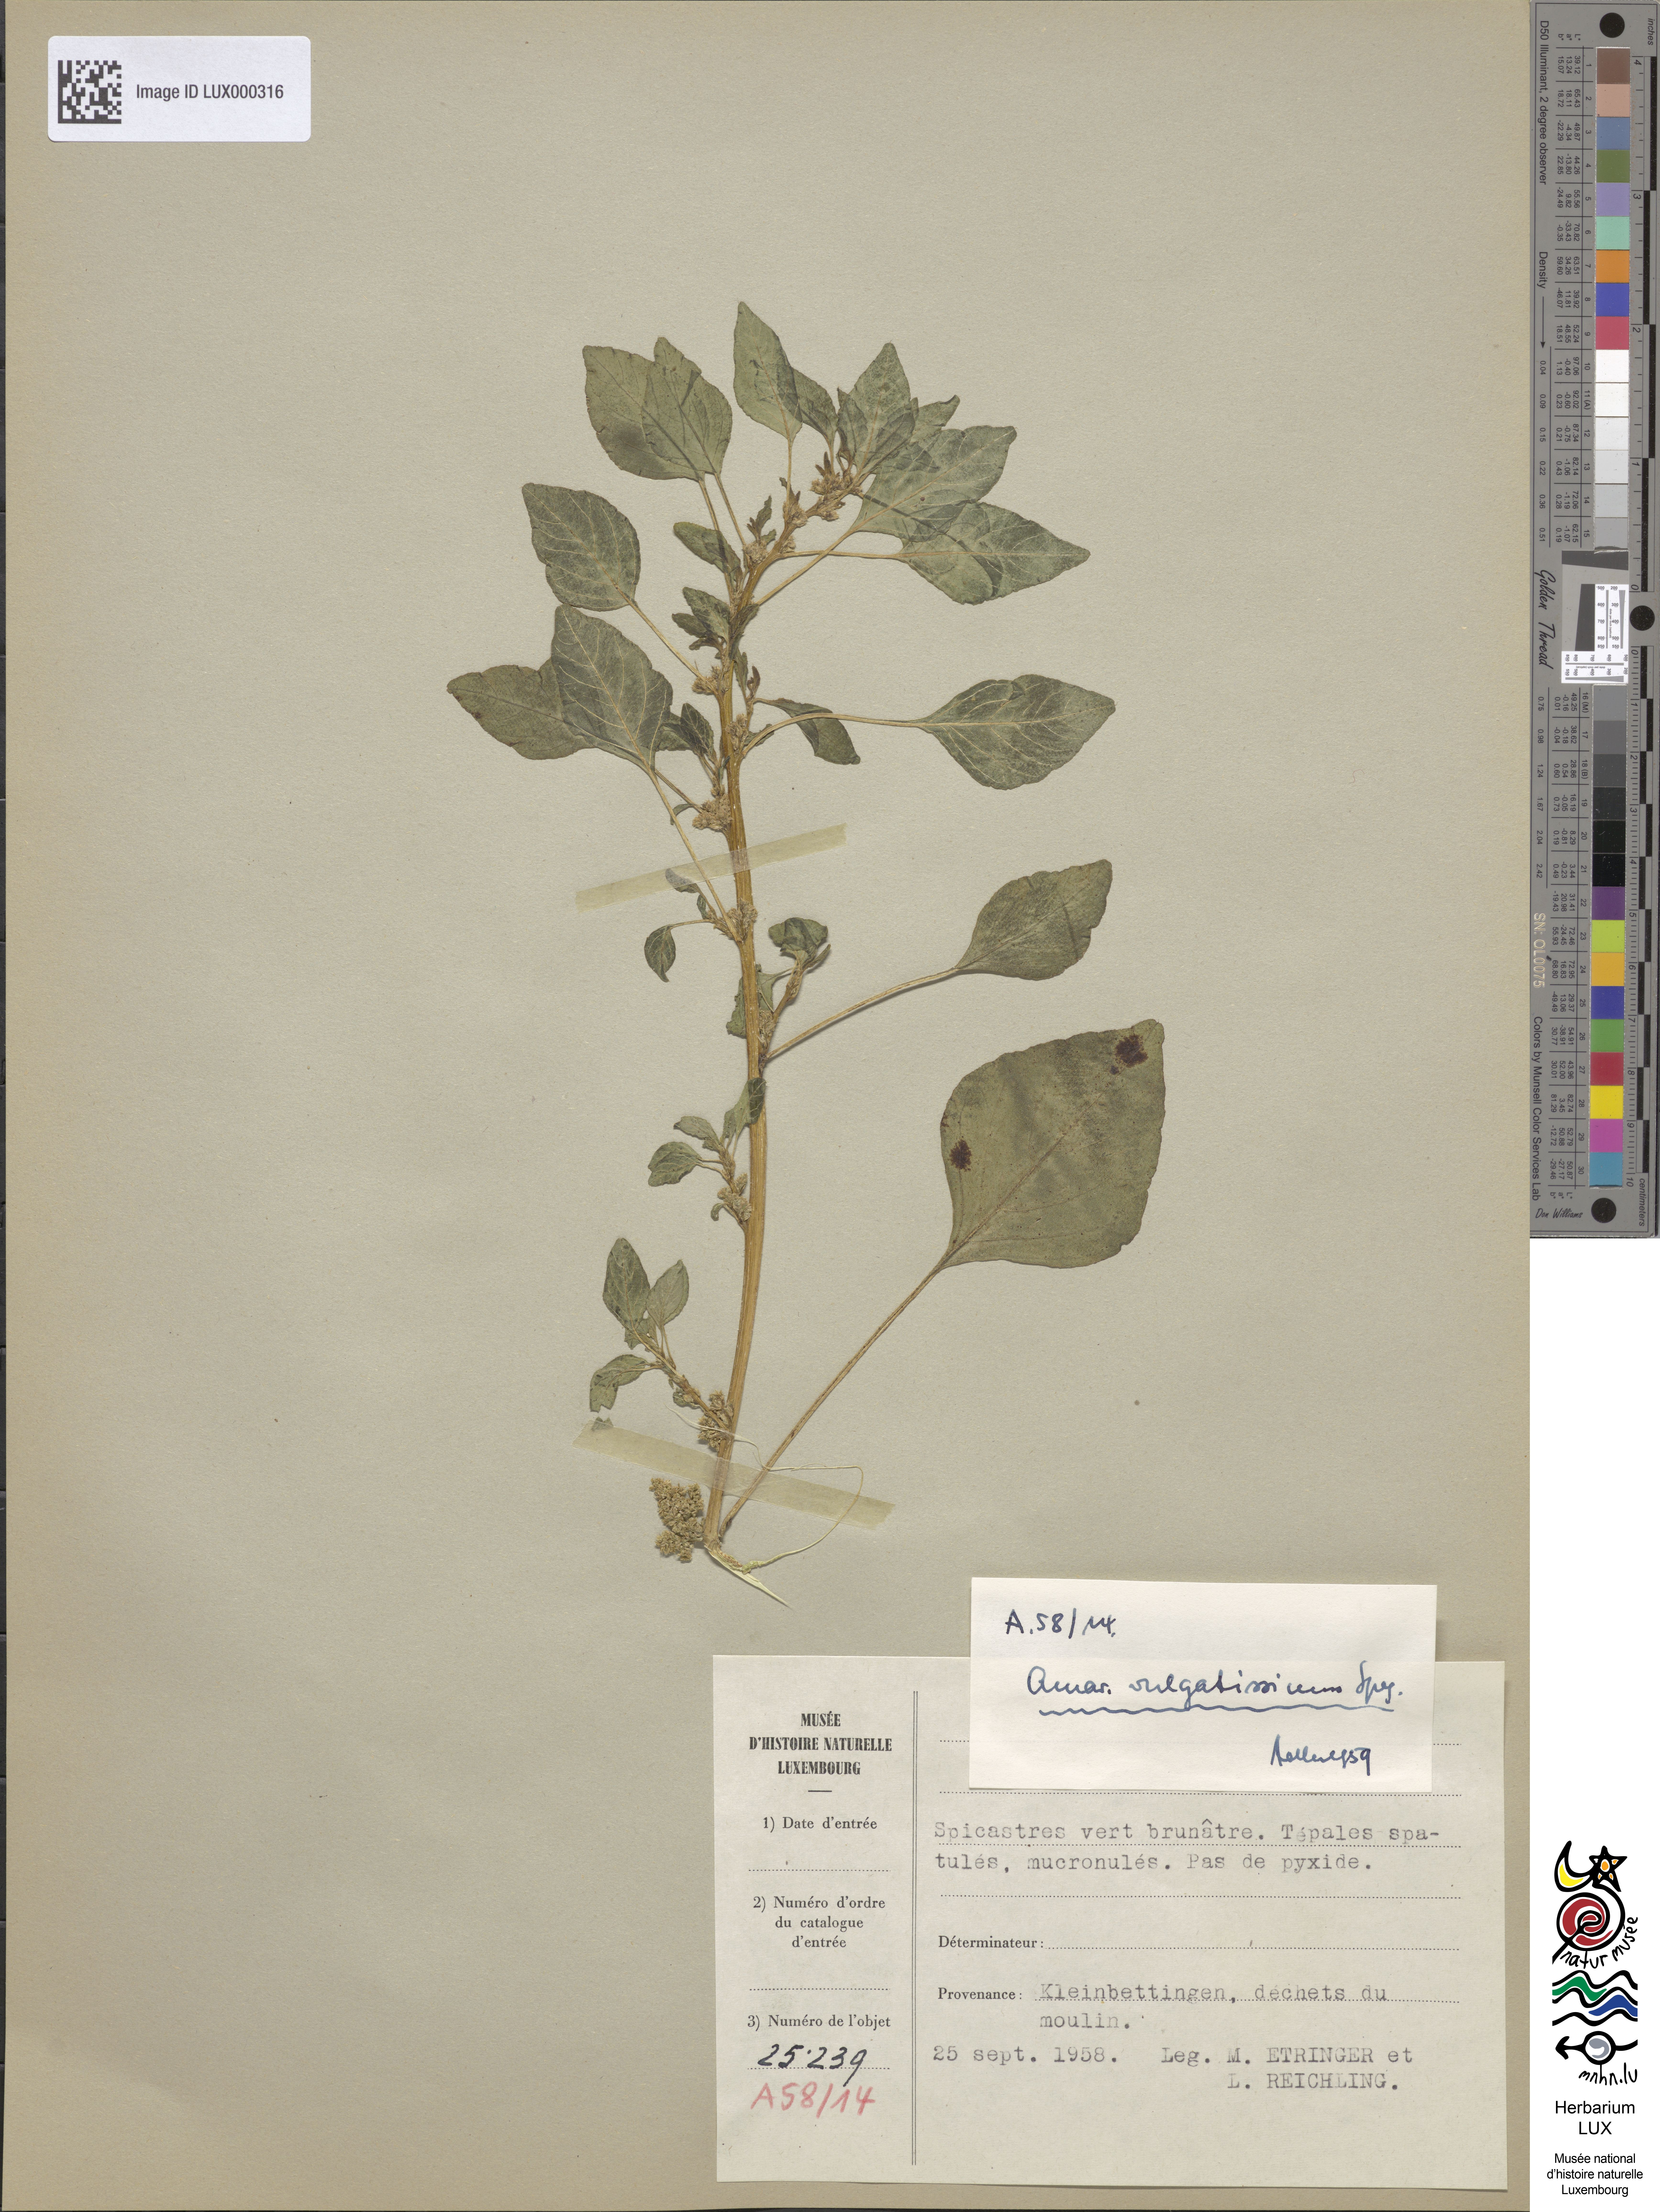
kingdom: Plantae
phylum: Tracheophyta
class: Magnoliopsida
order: Caryophyllales
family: Amaranthaceae
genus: Amaranthus
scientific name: Amaranthus vulgatissimus
